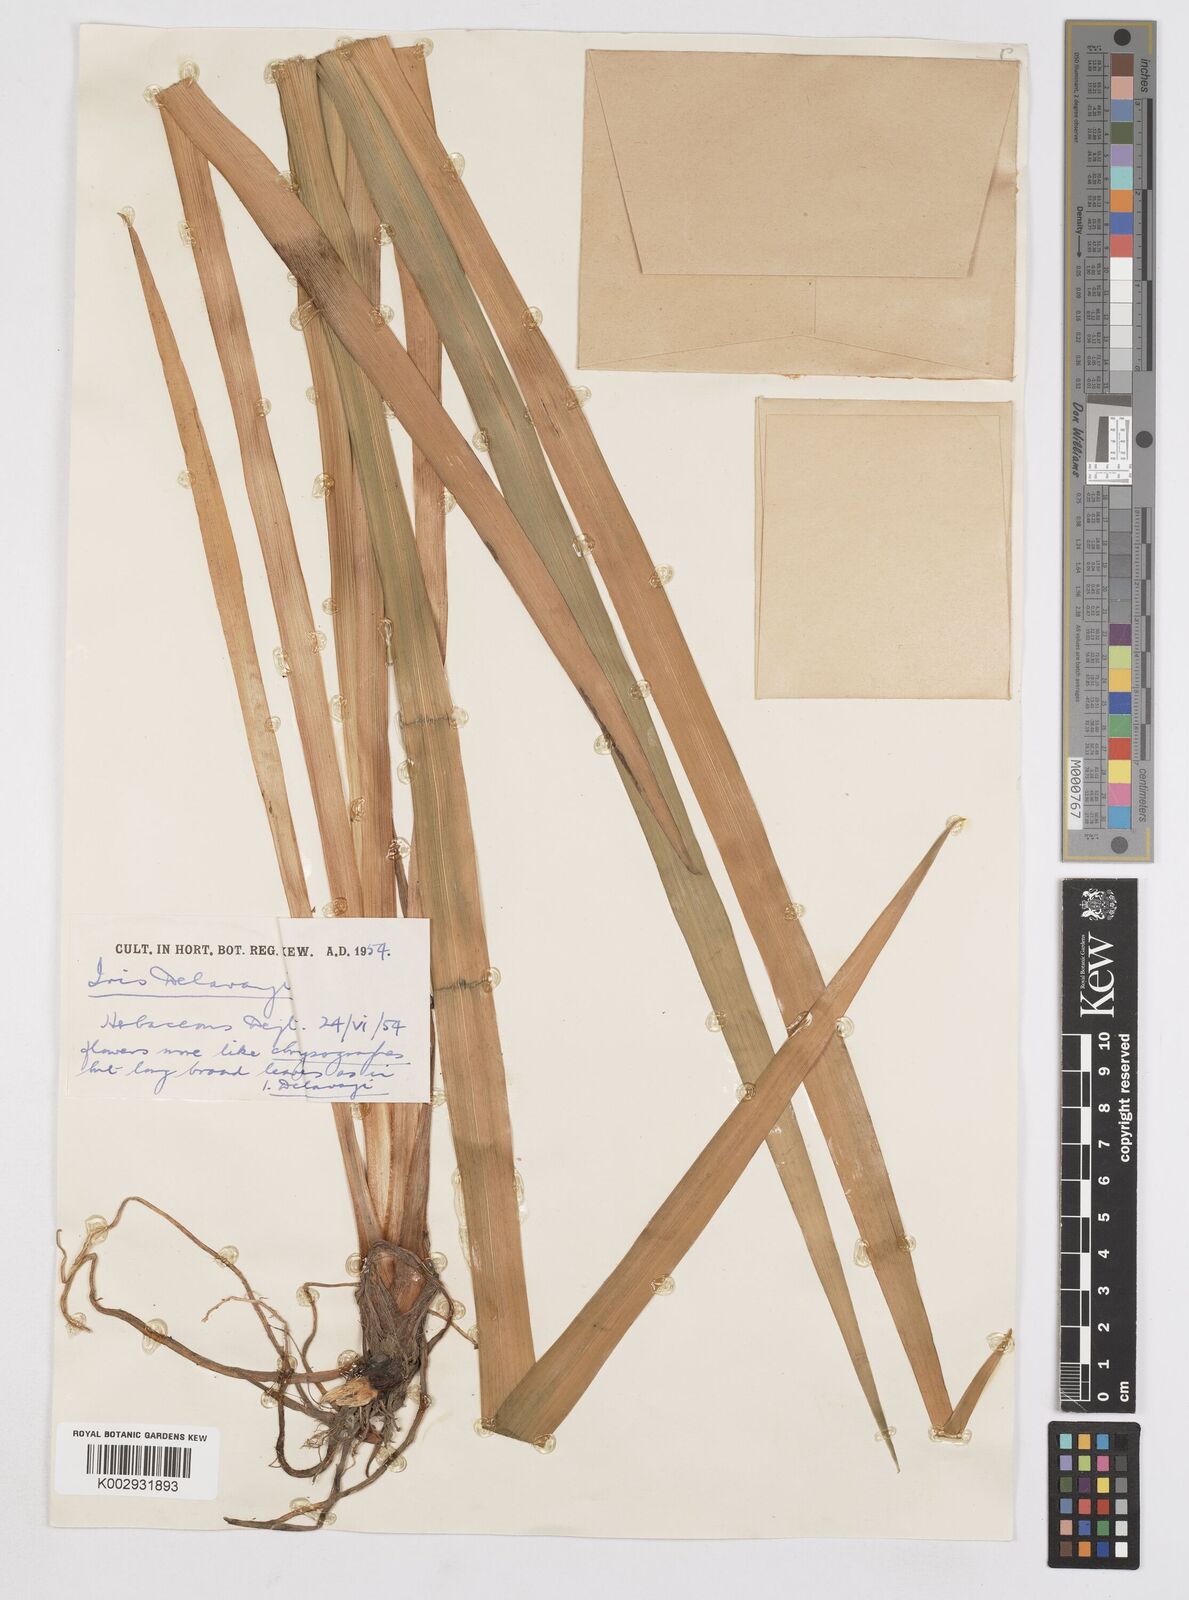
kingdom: Plantae
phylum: Tracheophyta
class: Liliopsida
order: Asparagales
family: Iridaceae
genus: Iris
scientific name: Iris delavayi
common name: Long-scape iris
